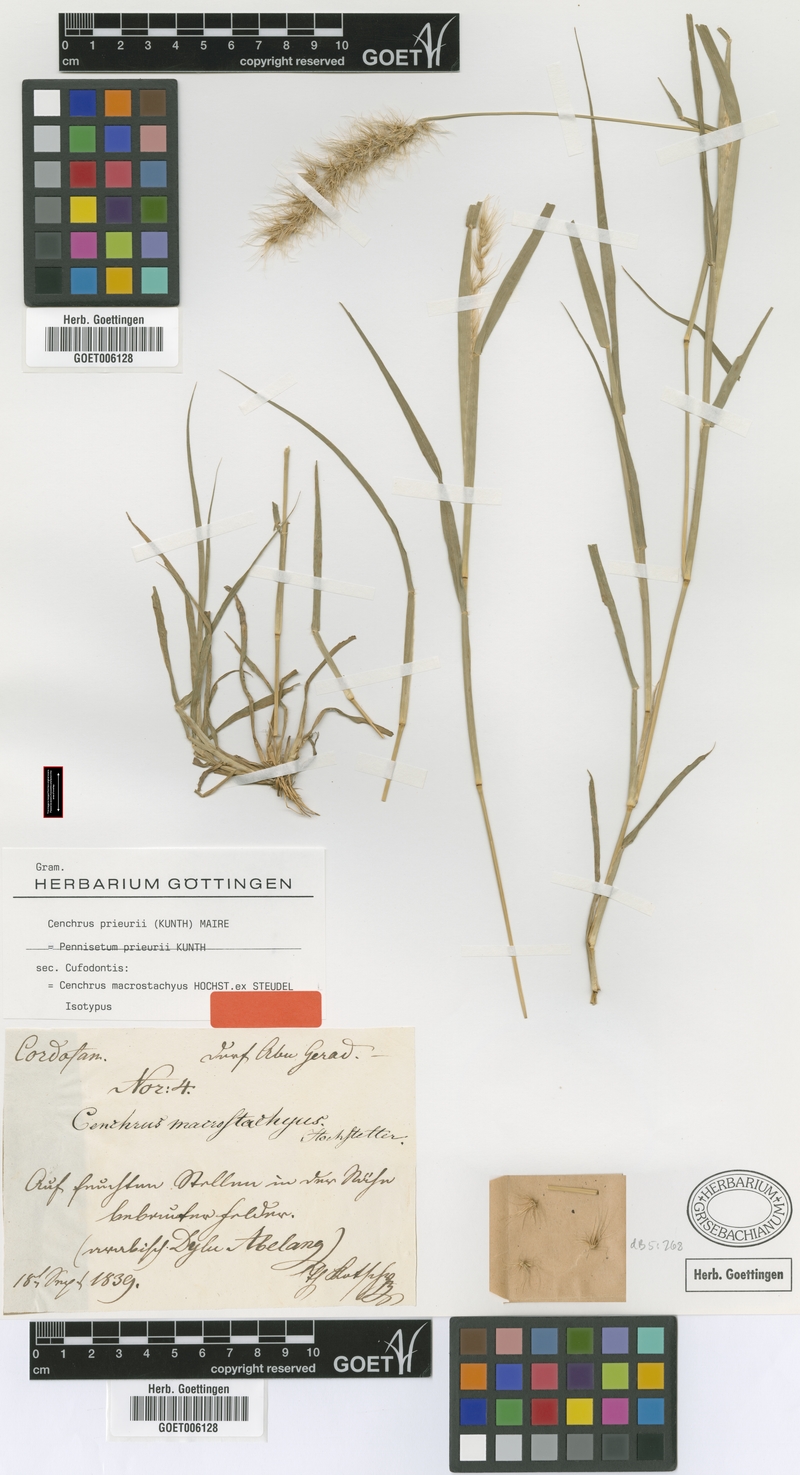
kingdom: Plantae
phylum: Tracheophyta
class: Liliopsida
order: Poales
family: Poaceae
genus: Cenchrus
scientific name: Cenchrus prieurii
